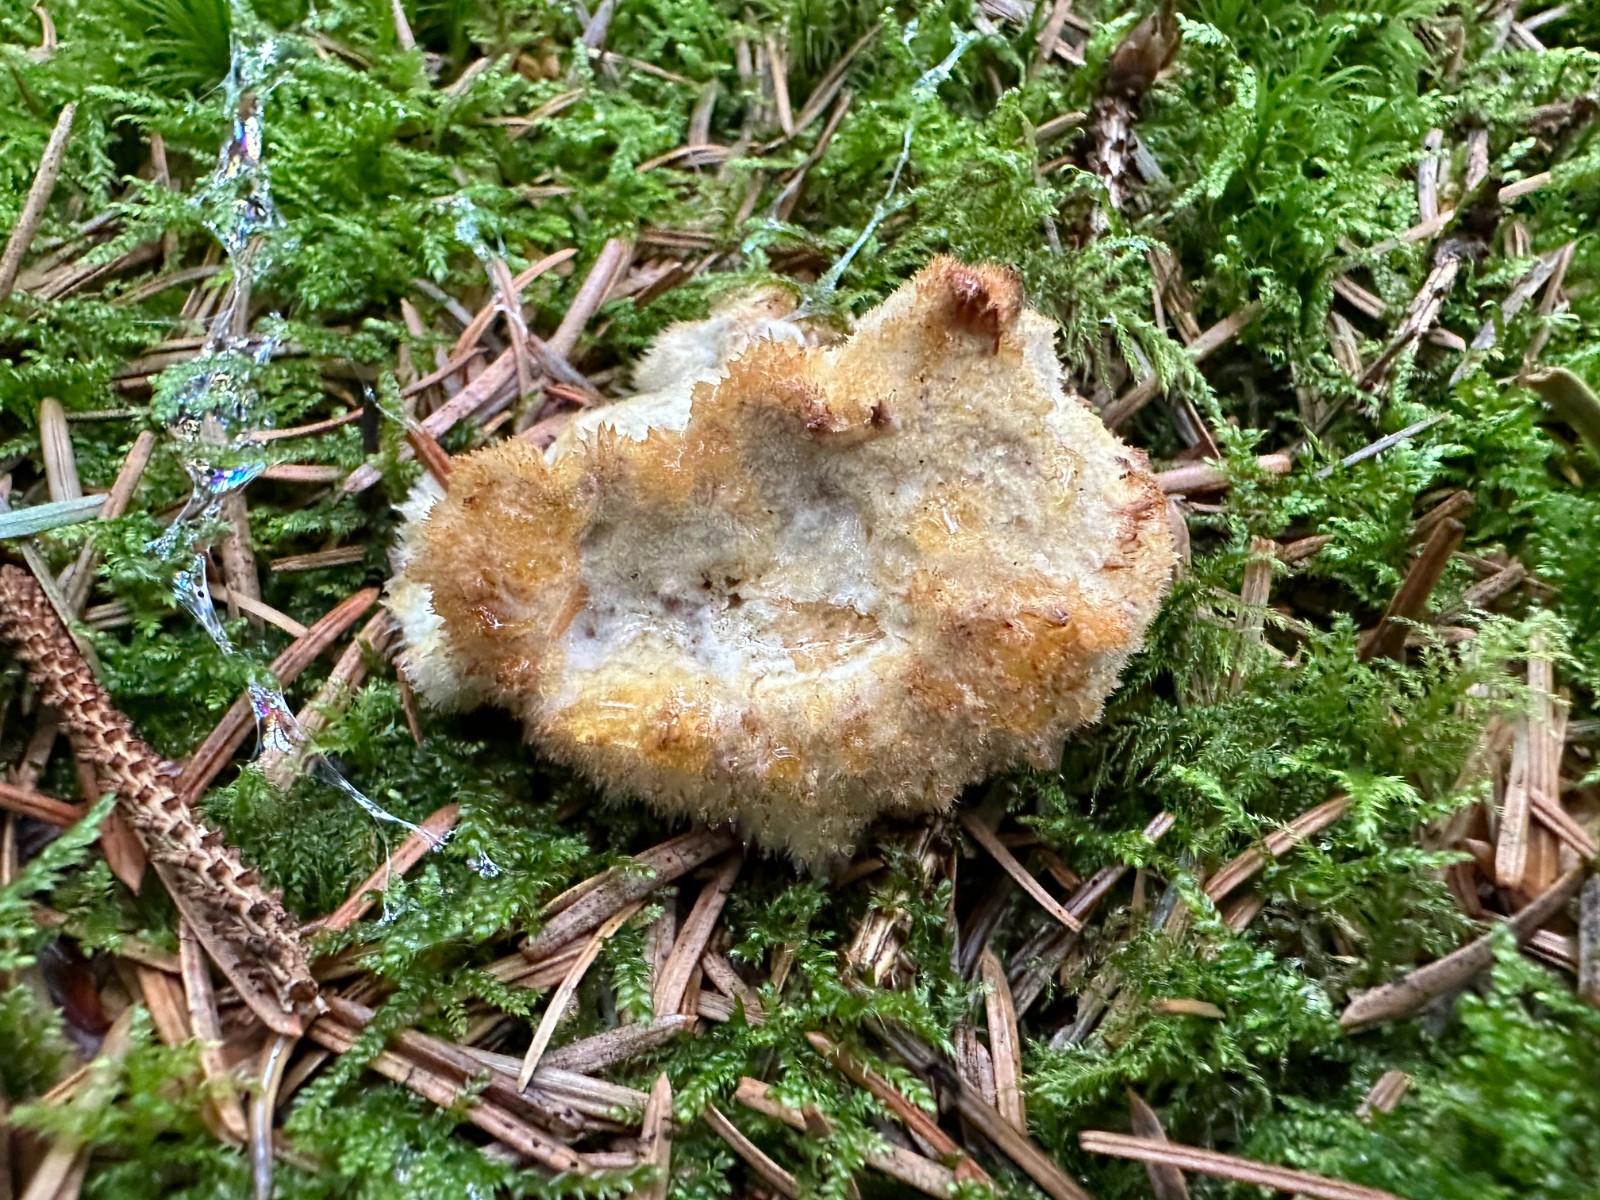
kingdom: Fungi
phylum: Basidiomycota
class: Agaricomycetes
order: Polyporales
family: Dacryobolaceae
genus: Postia
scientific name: Postia ptychogaster
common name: støvende kødporesvamp
